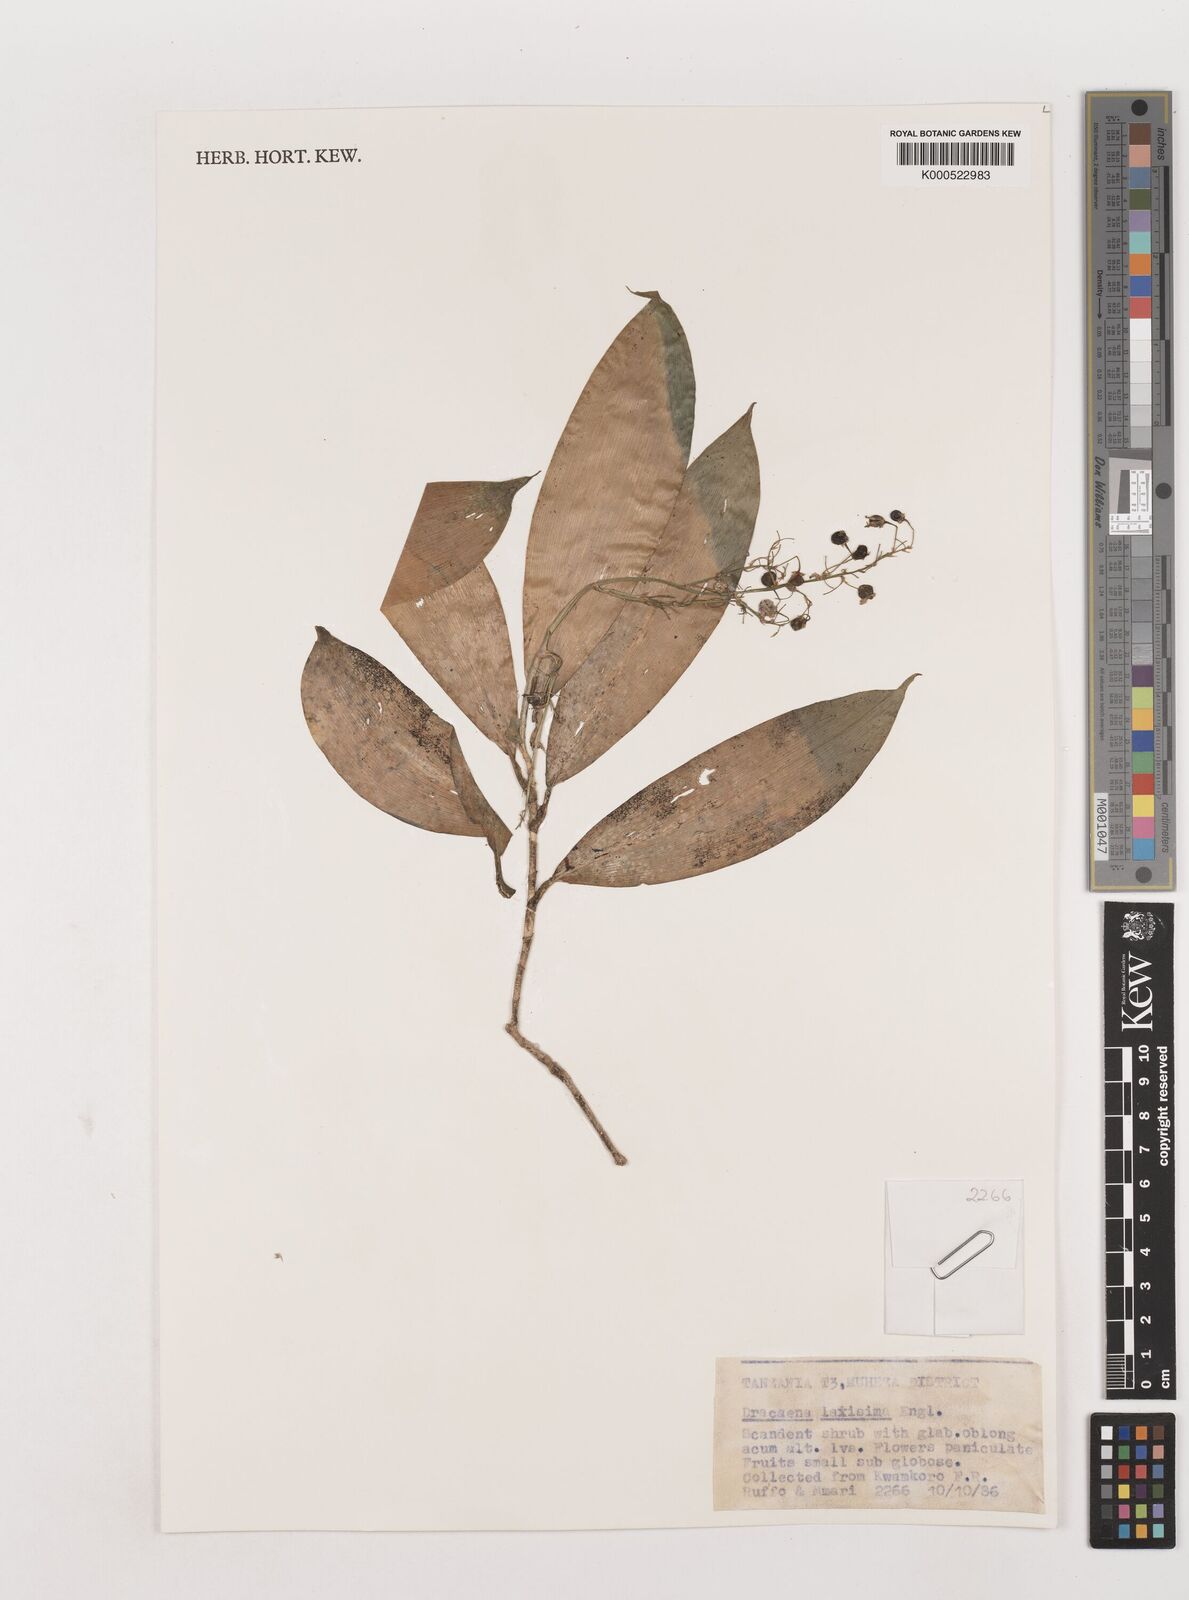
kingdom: Plantae
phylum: Tracheophyta
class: Liliopsida
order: Asparagales
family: Asparagaceae
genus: Dracaena
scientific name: Dracaena laxissima
